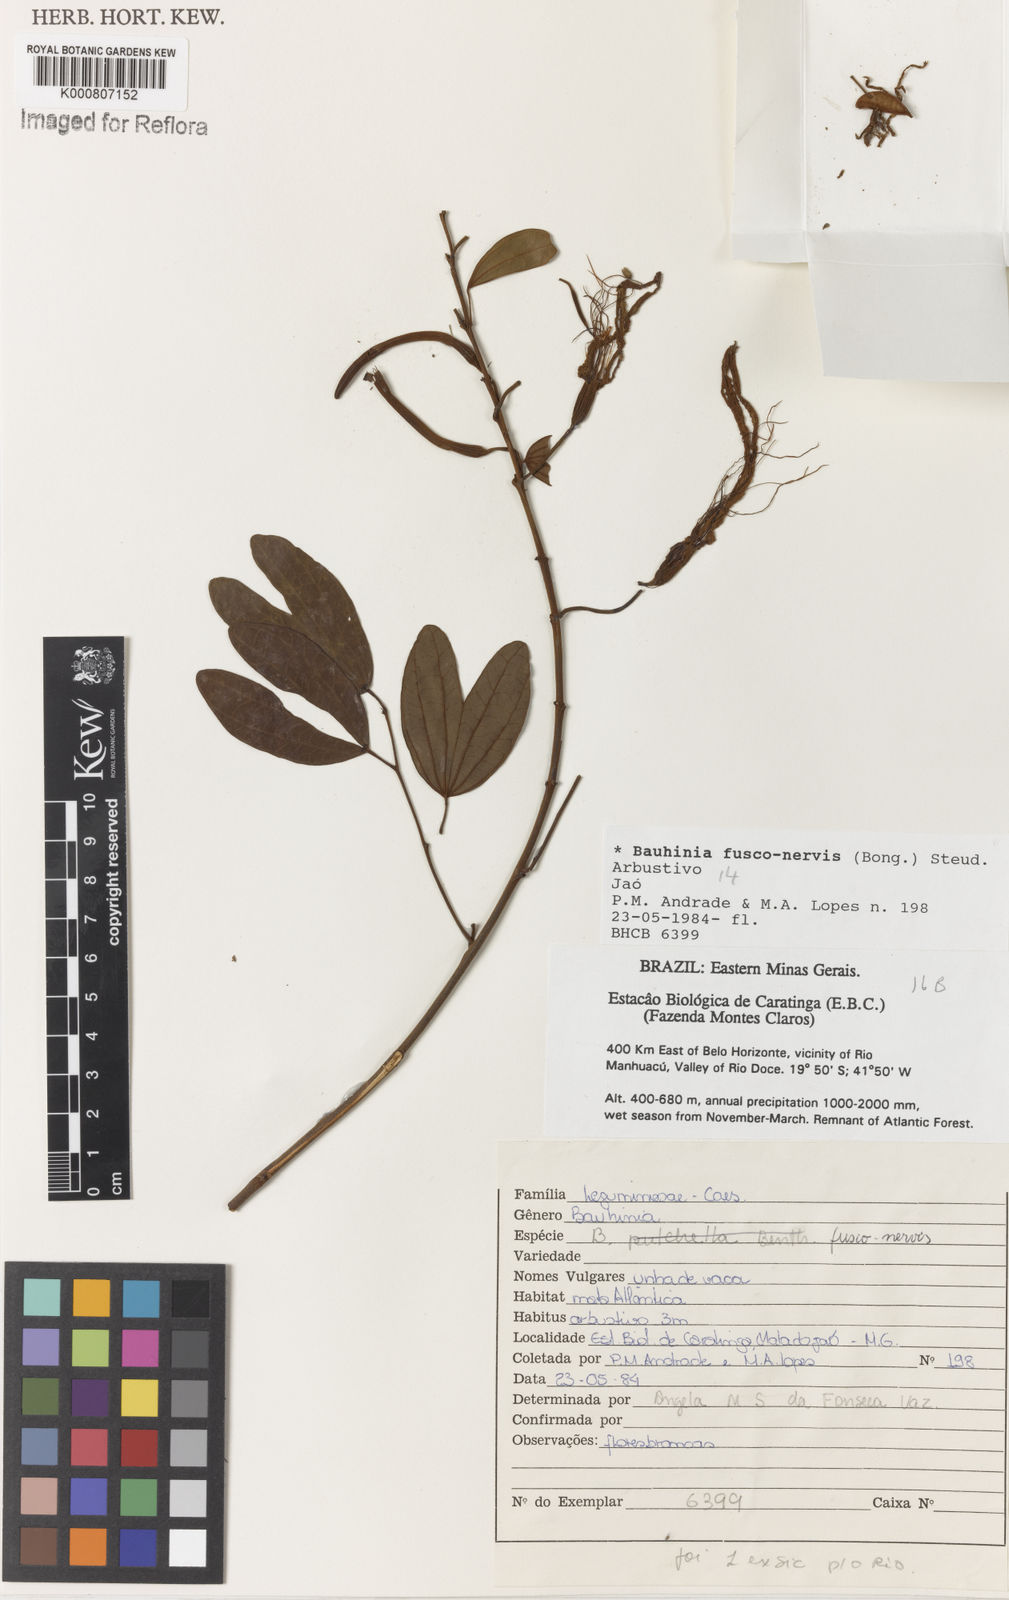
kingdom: Plantae
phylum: Tracheophyta
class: Magnoliopsida
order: Fabales
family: Fabaceae
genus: Bauhinia
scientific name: Bauhinia
